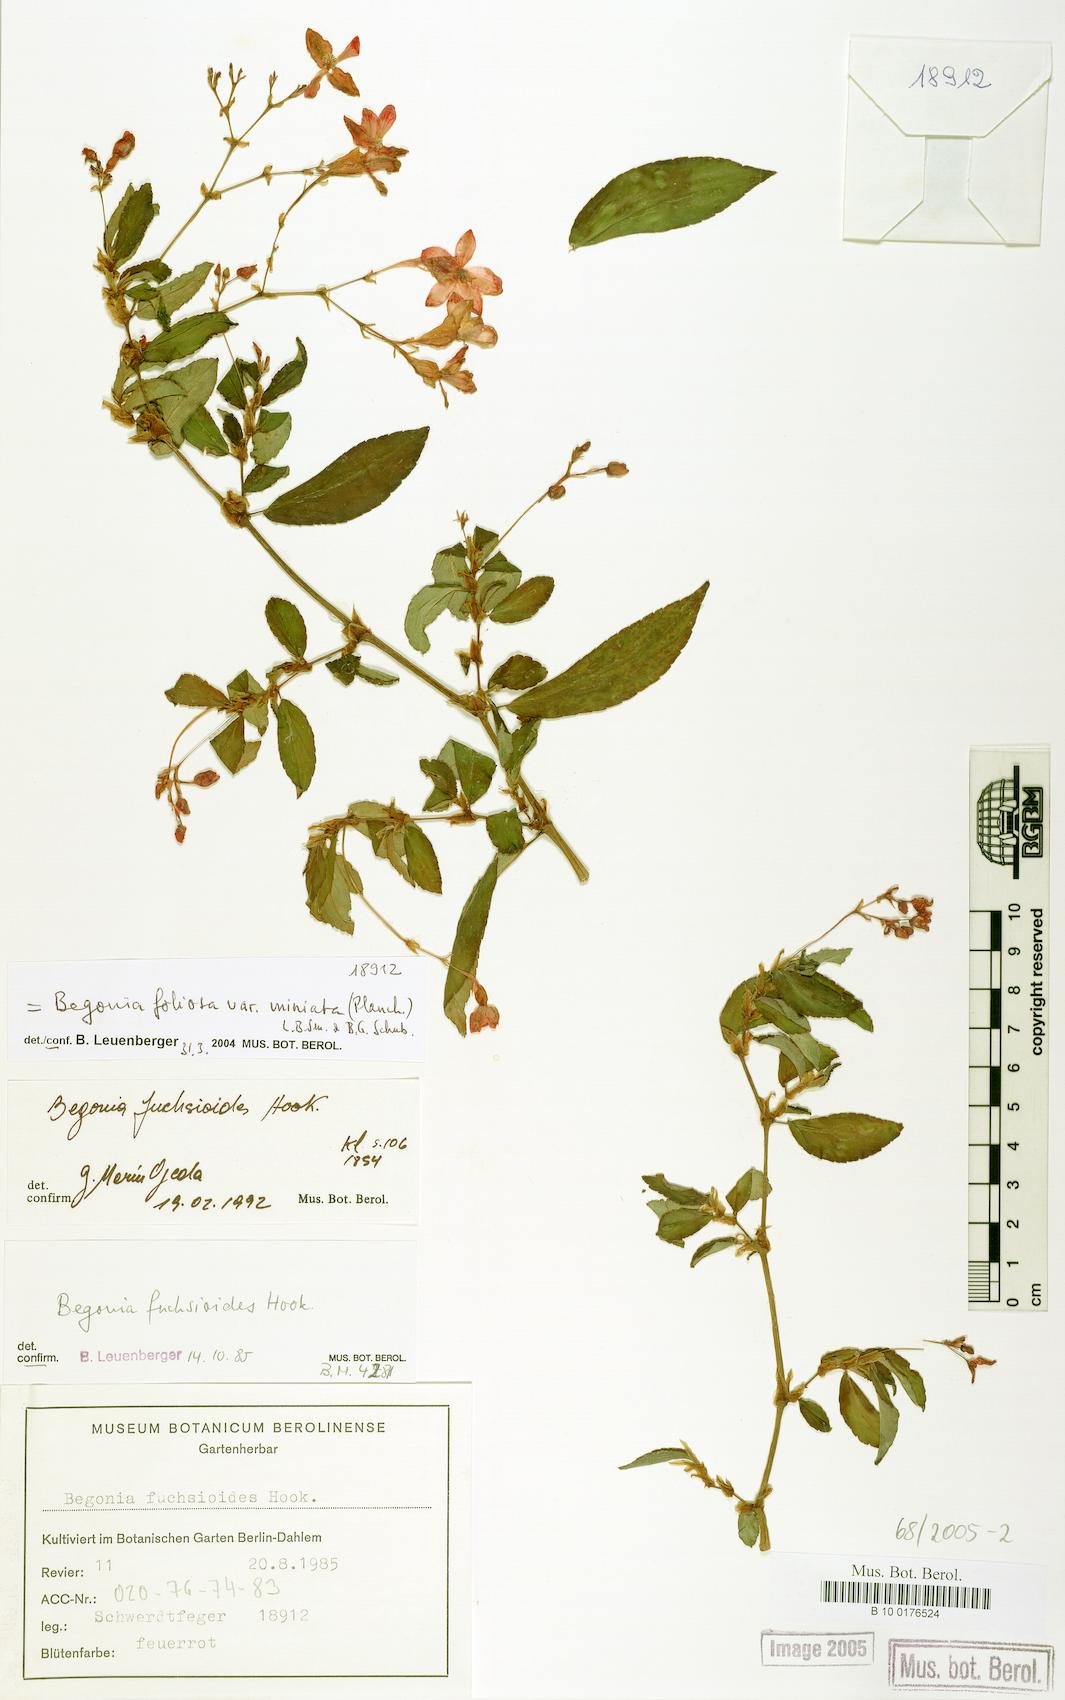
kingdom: Plantae
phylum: Tracheophyta
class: Magnoliopsida
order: Cucurbitales
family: Begoniaceae
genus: Begonia
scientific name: Begonia fuchsioides
